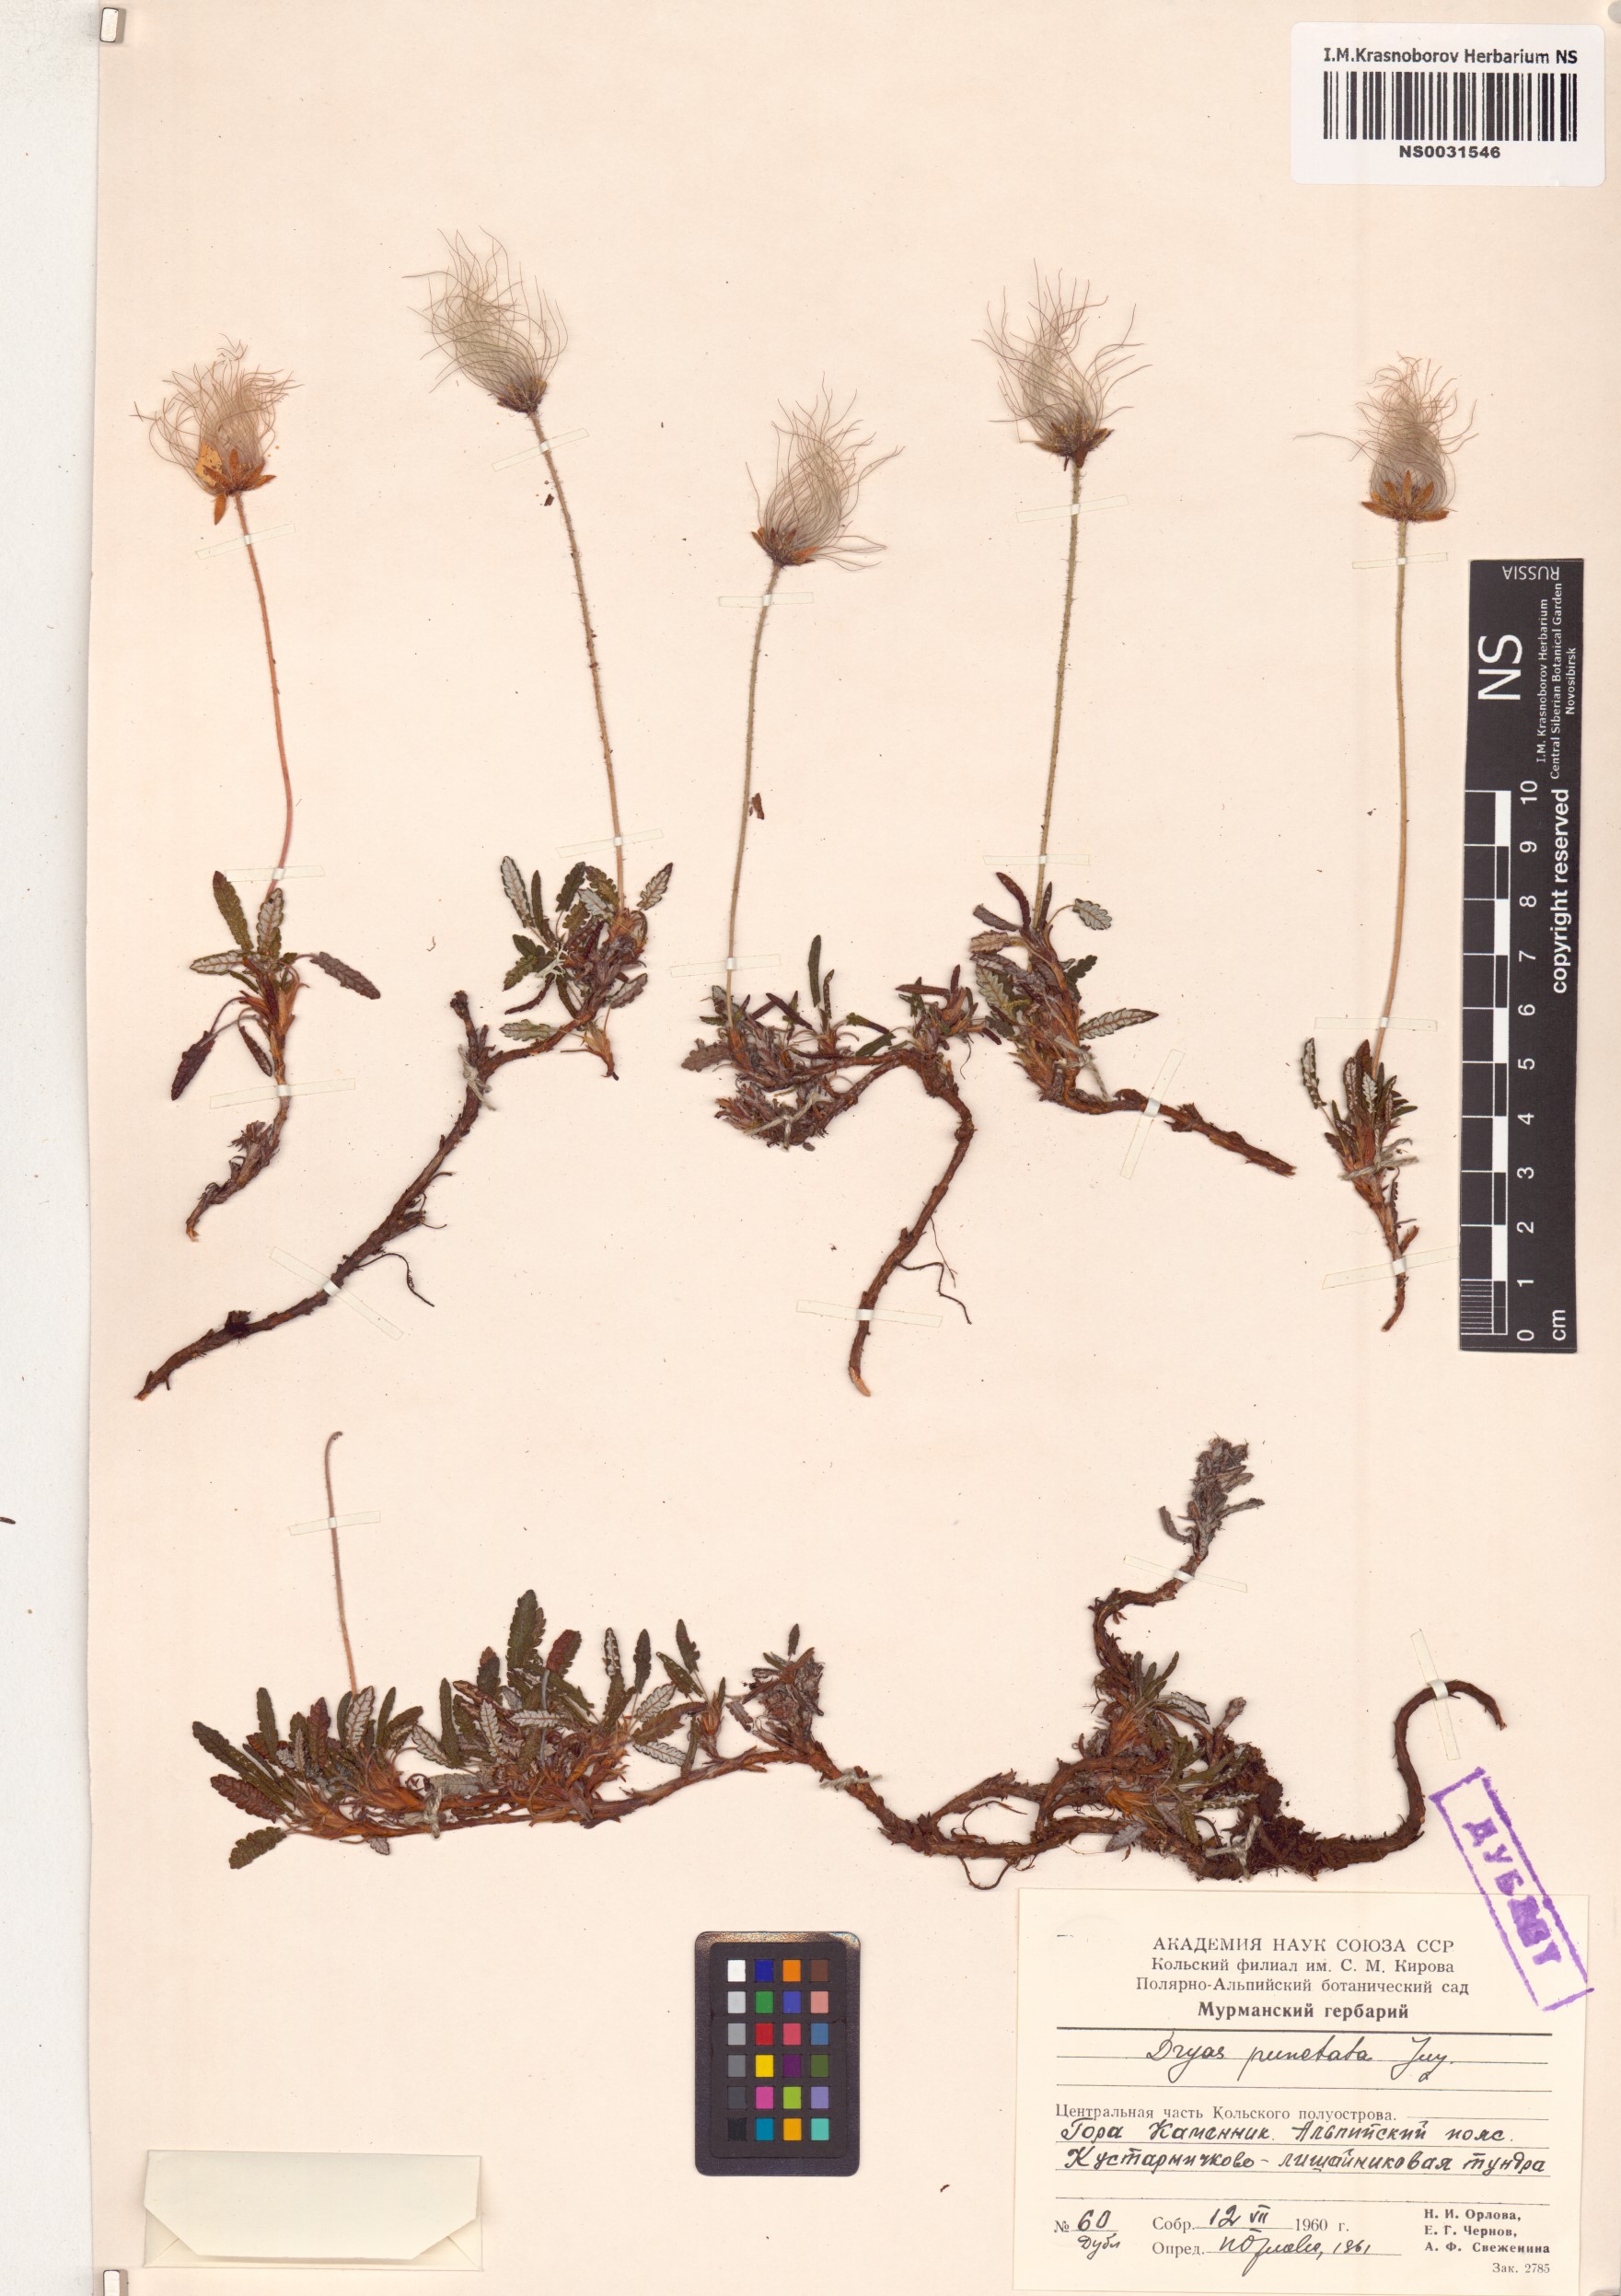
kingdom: Plantae
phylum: Tracheophyta
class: Magnoliopsida
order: Rosales
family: Rosaceae
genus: Dryas
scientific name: Dryas octopetala
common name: Eight-petal mountain-avens
